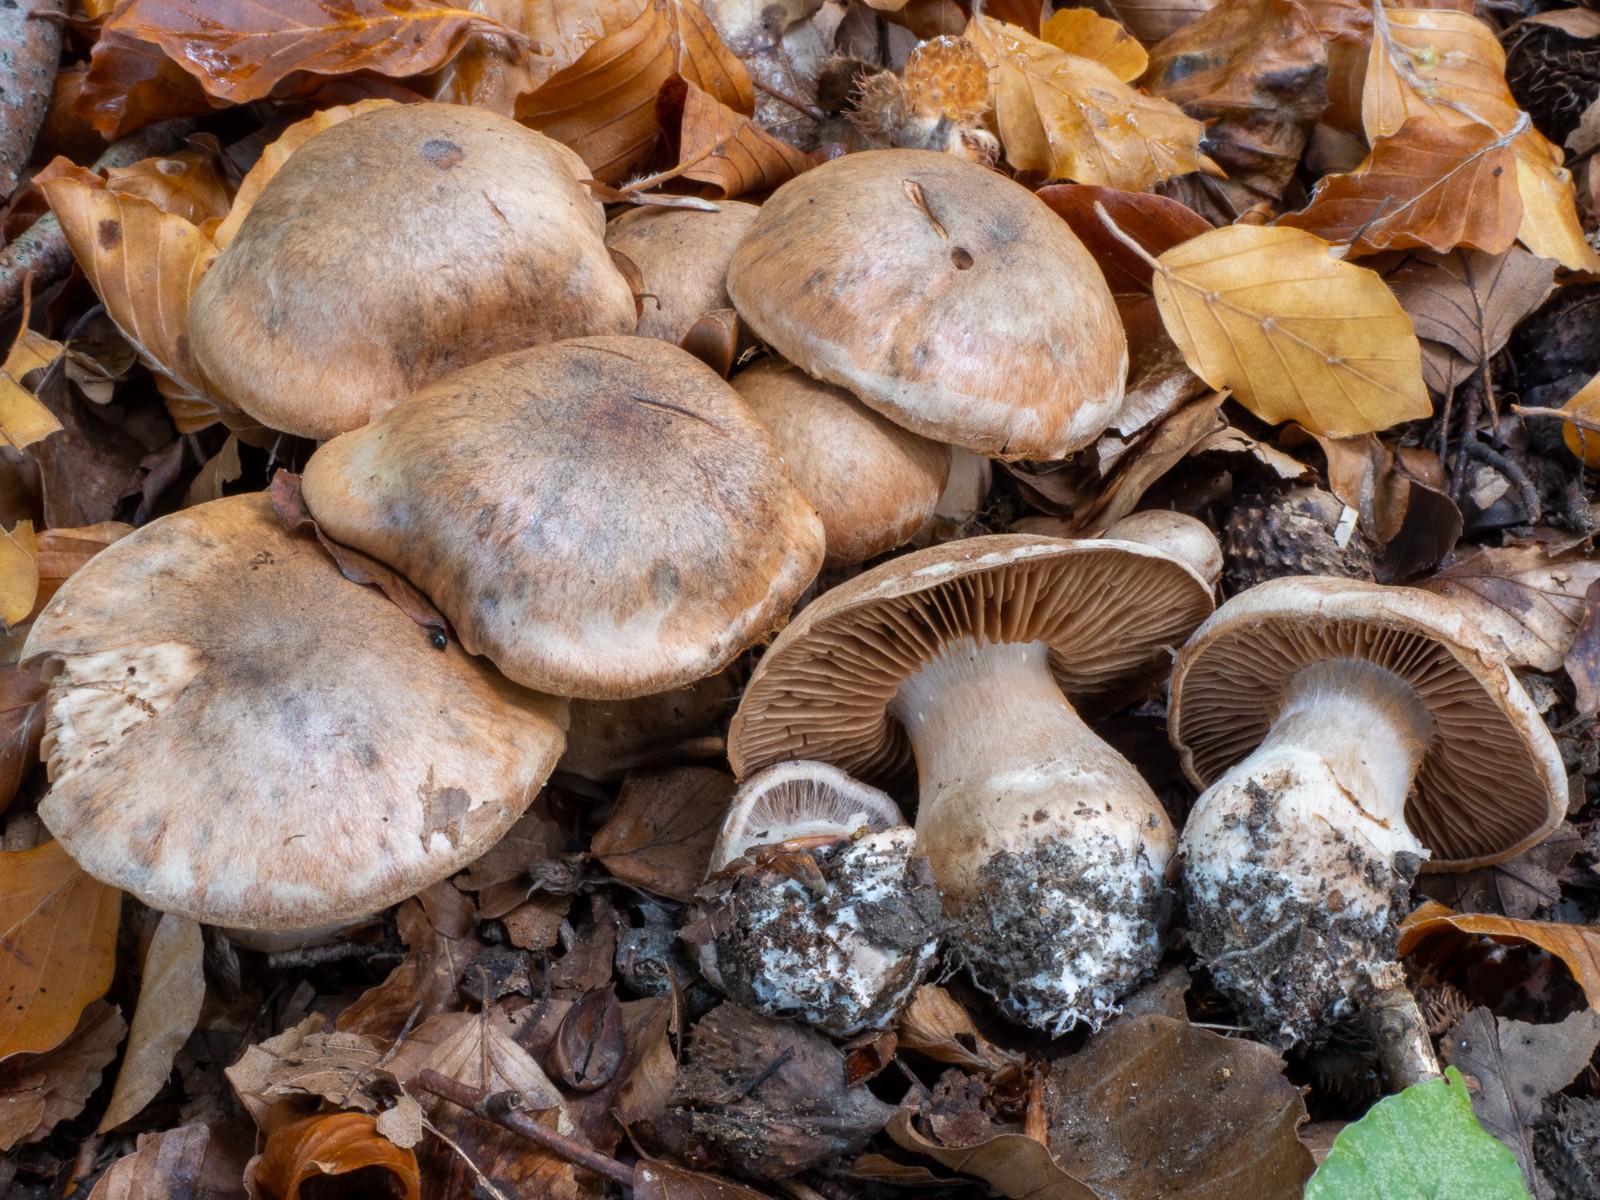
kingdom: Fungi
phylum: Basidiomycota
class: Agaricomycetes
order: Agaricales
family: Cortinariaceae
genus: Cortinarius
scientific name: Cortinarius stipitemirus
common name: vildsvine-slørhat
